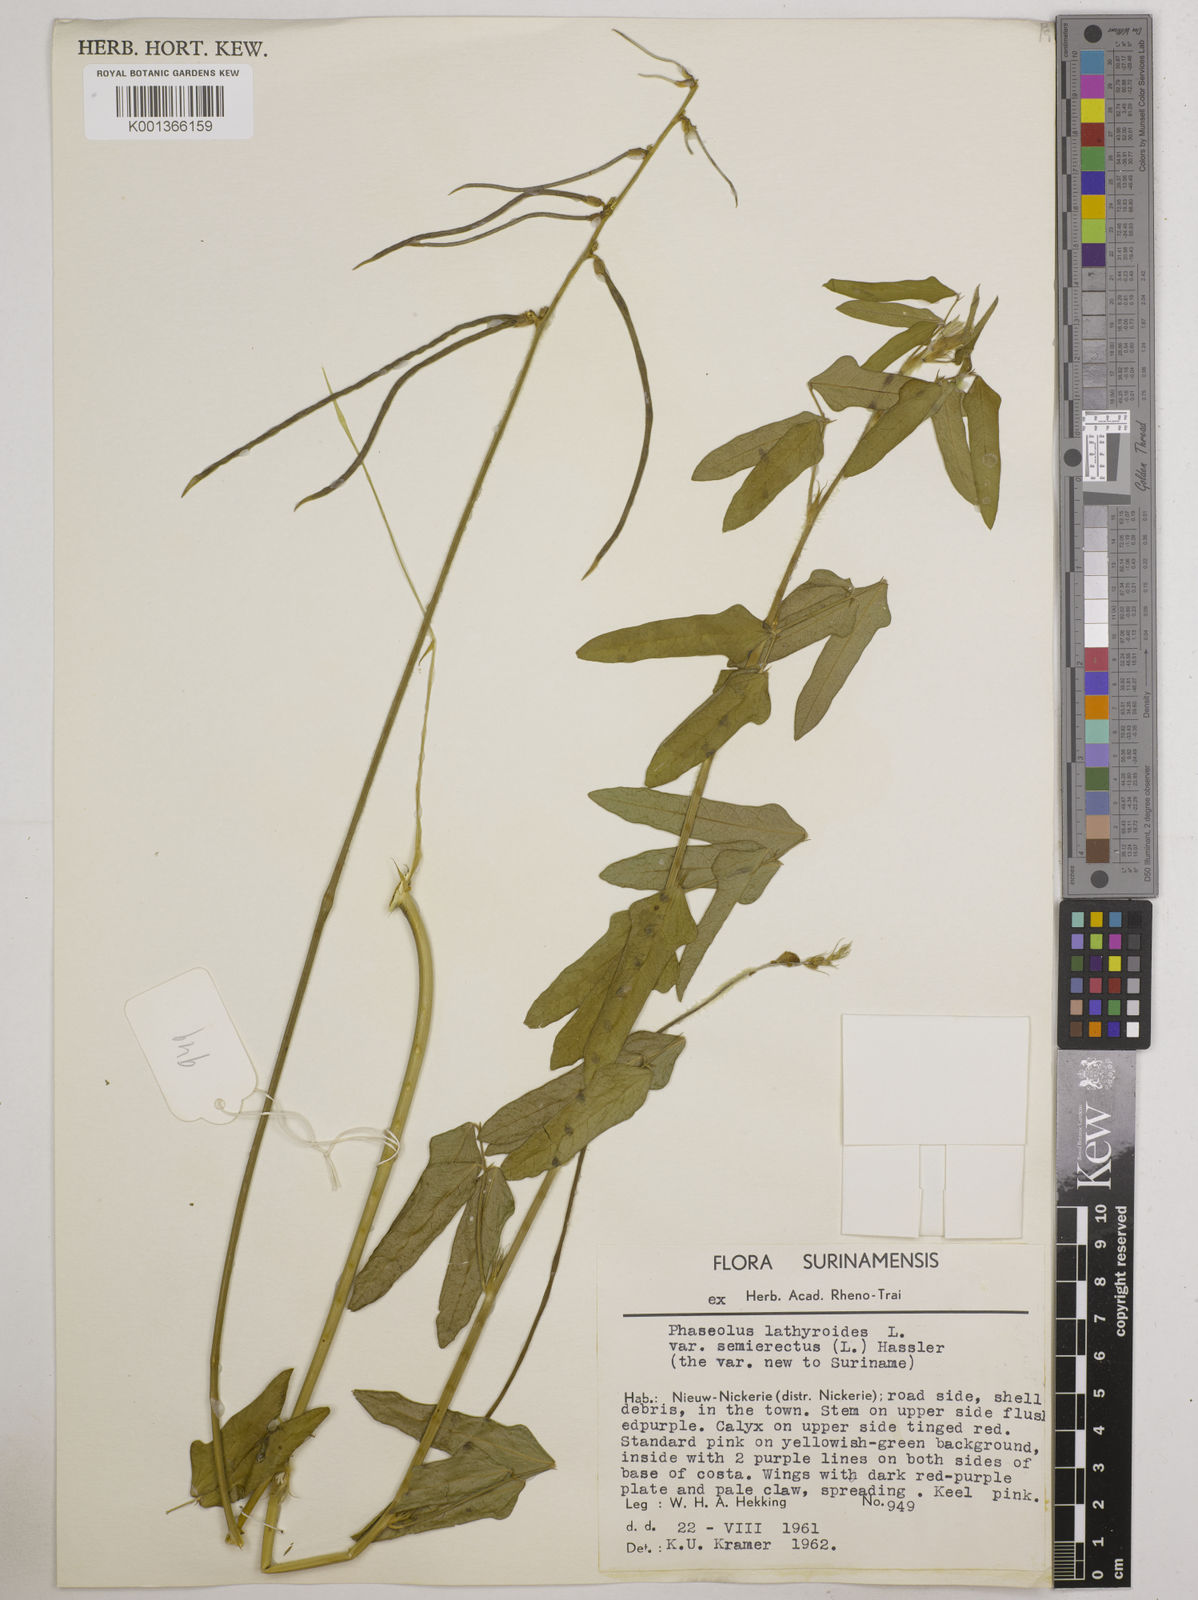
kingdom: Plantae
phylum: Tracheophyta
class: Magnoliopsida
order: Fabales
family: Fabaceae
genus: Macroptilium
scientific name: Macroptilium lathyroides
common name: Wild bushbean
